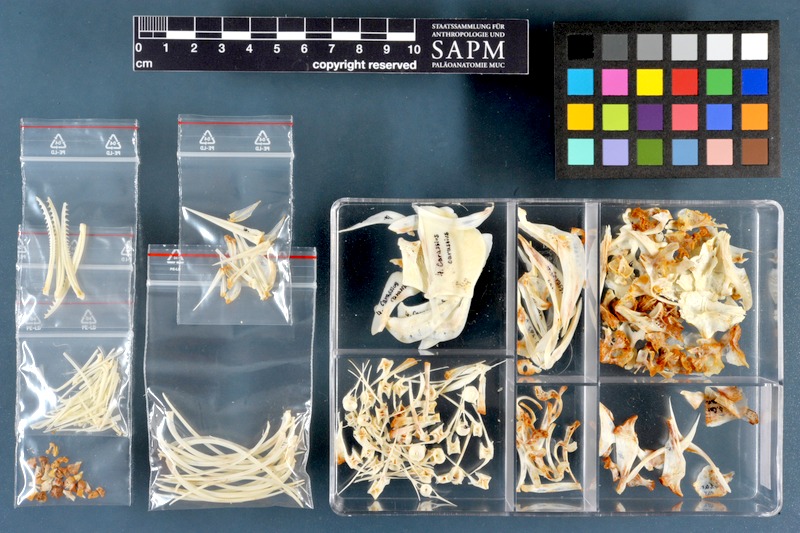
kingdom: Animalia
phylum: Chordata
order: Cypriniformes
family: Cyprinidae
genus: Carassius
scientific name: Carassius carassius
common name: Crucian carp
